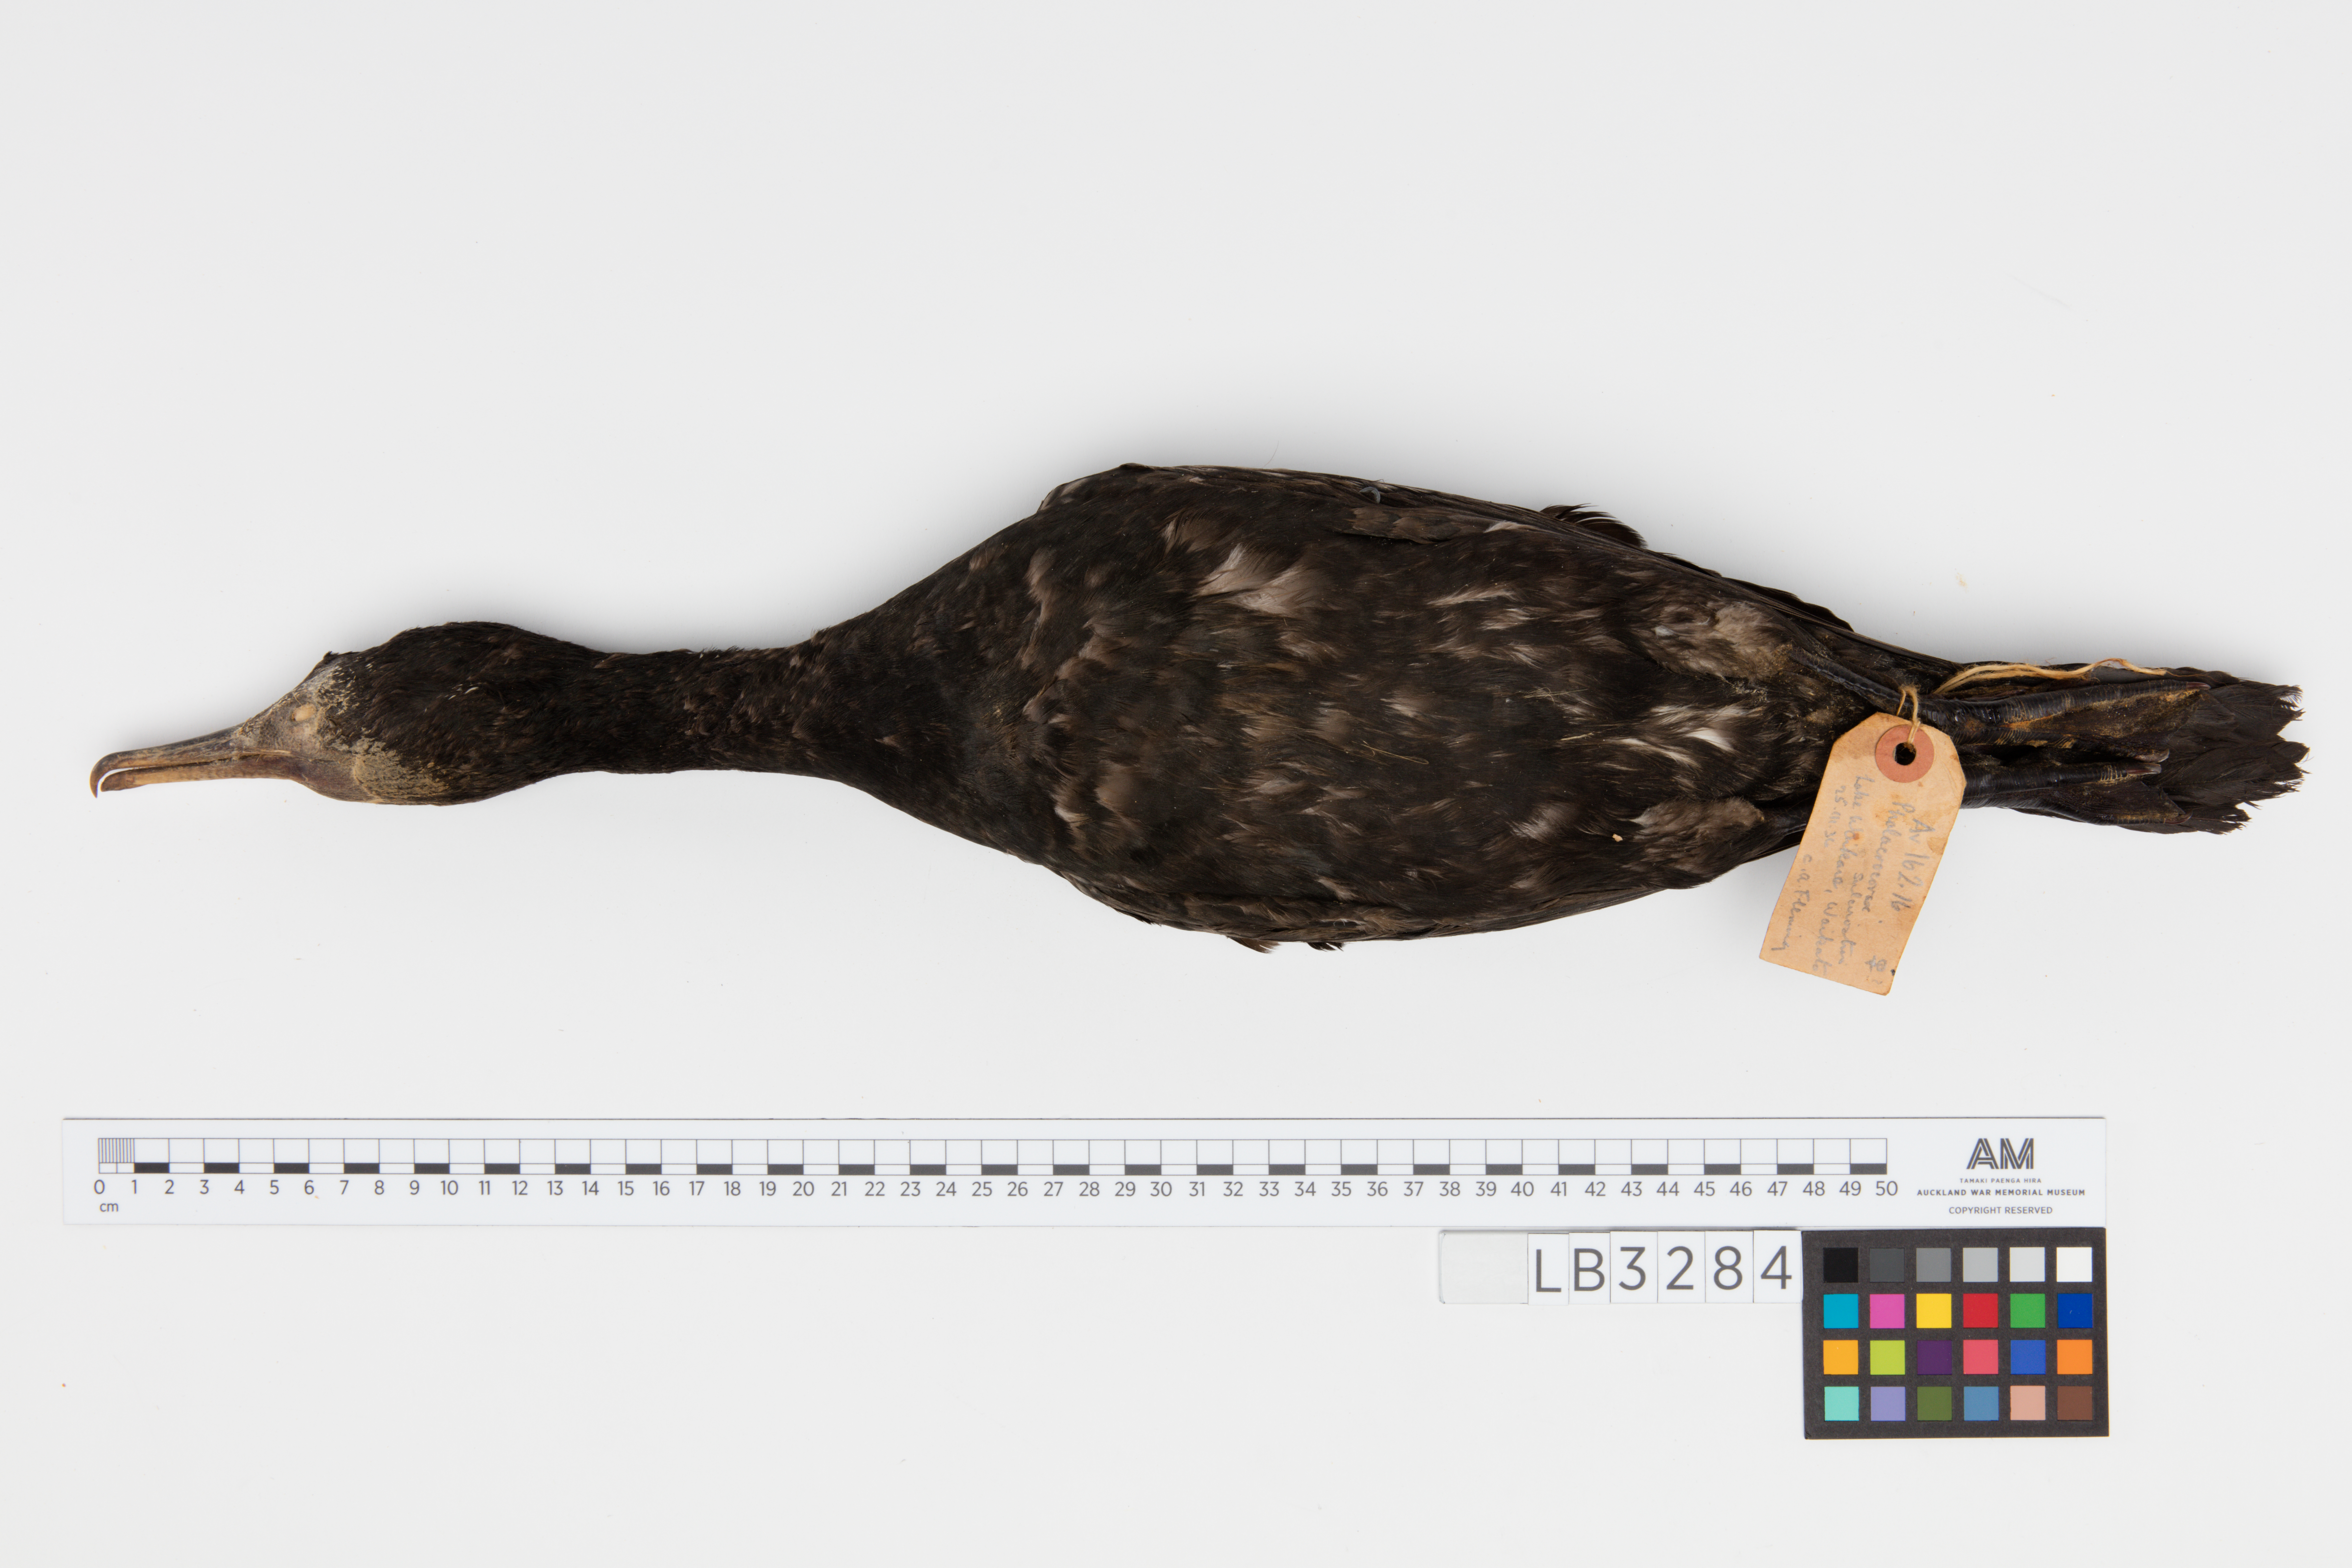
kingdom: Animalia
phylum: Chordata
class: Aves
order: Suliformes
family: Phalacrocoracidae
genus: Phalacrocorax
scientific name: Phalacrocorax sulcirostris
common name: Little black cormorant
